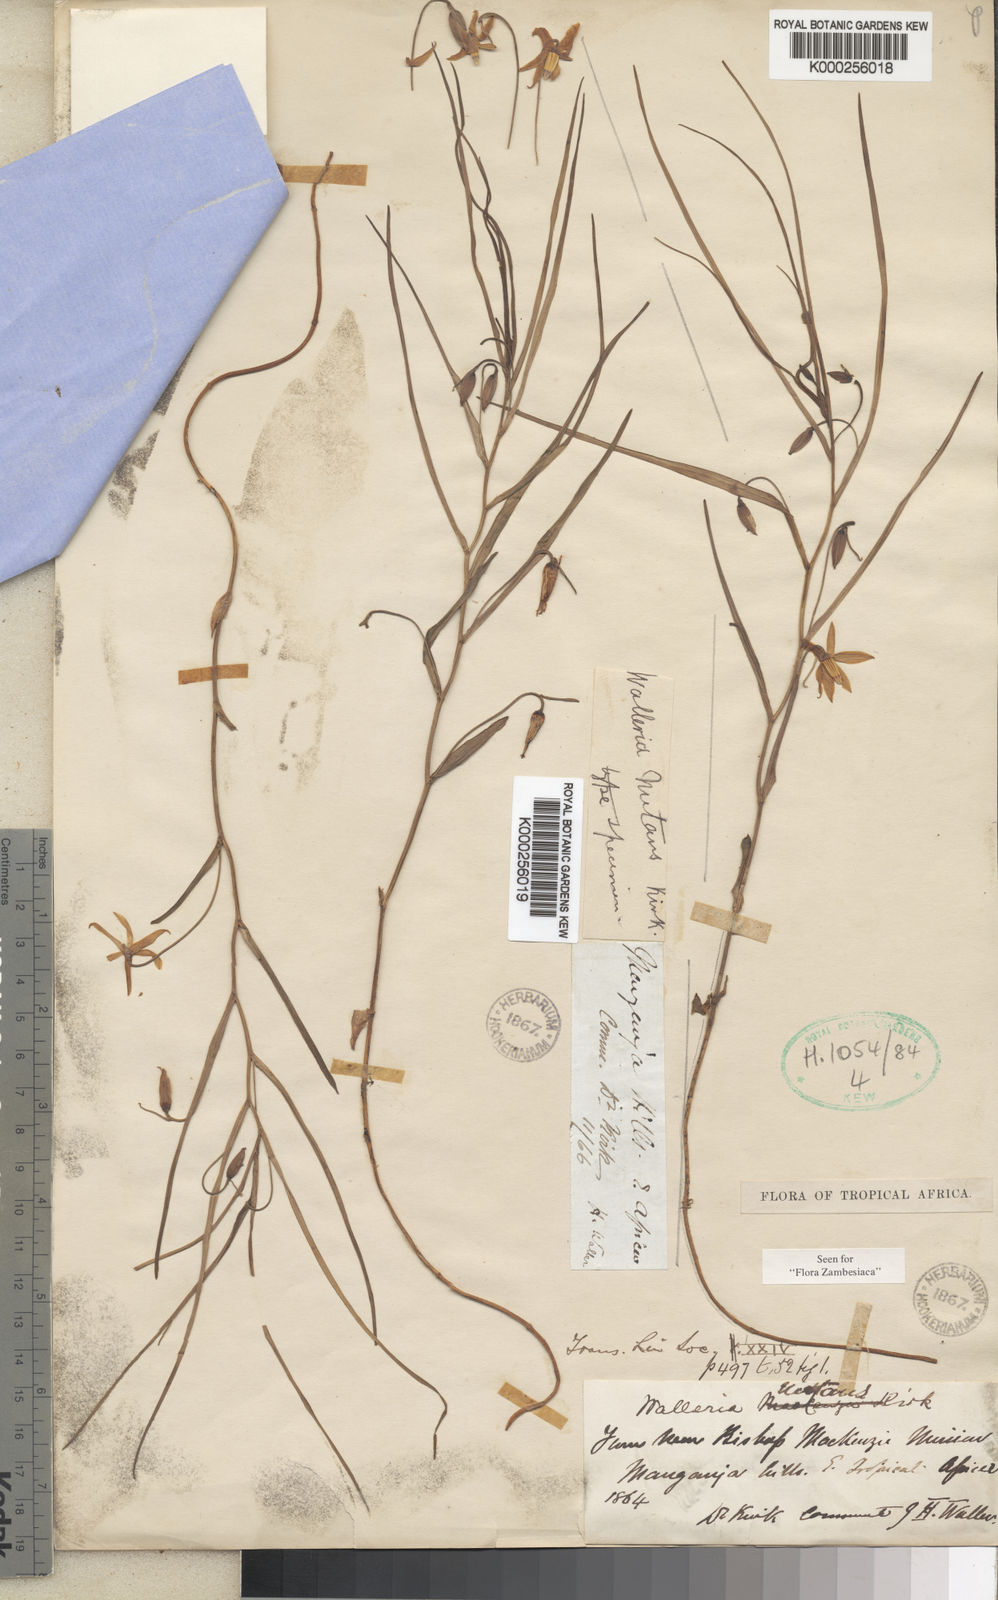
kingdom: Plantae
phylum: Tracheophyta
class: Liliopsida
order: Asparagales
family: Tecophilaeaceae
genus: Walleria
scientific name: Walleria nutans
